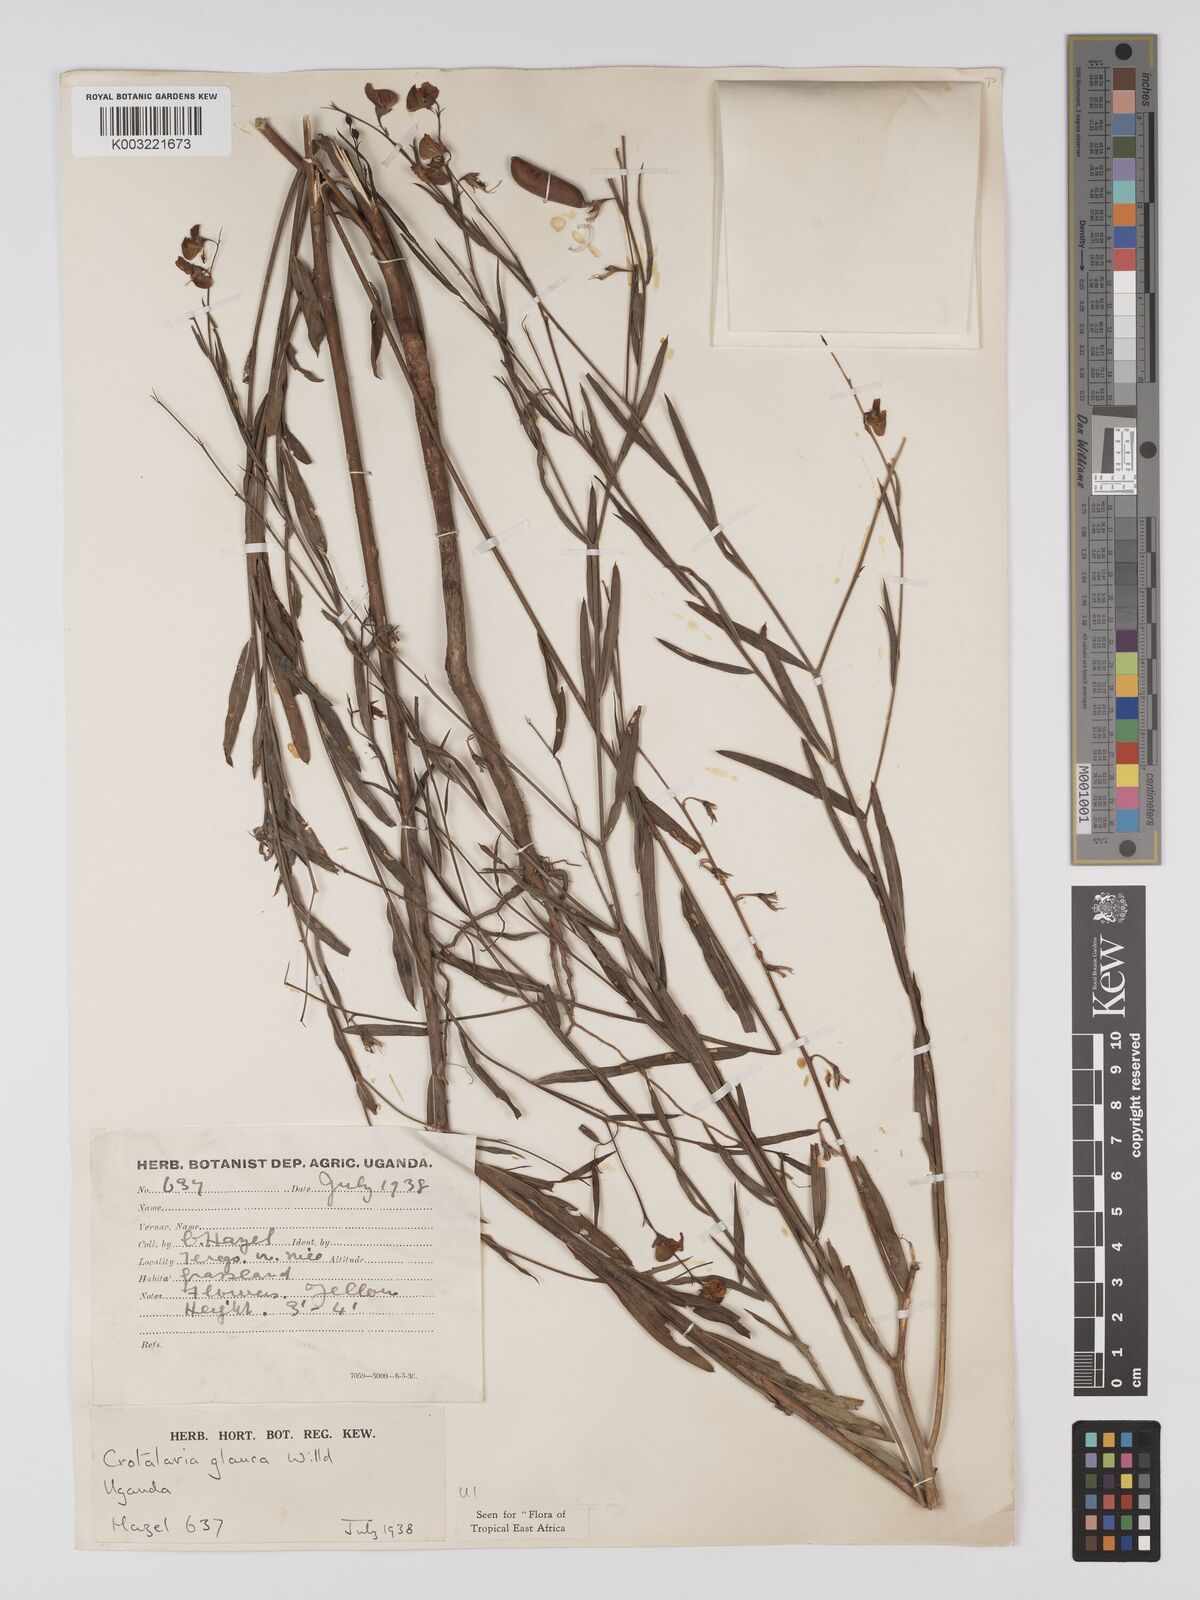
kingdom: Plantae
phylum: Tracheophyta
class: Magnoliopsida
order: Fabales
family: Fabaceae
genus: Crotalaria
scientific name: Crotalaria glauca
